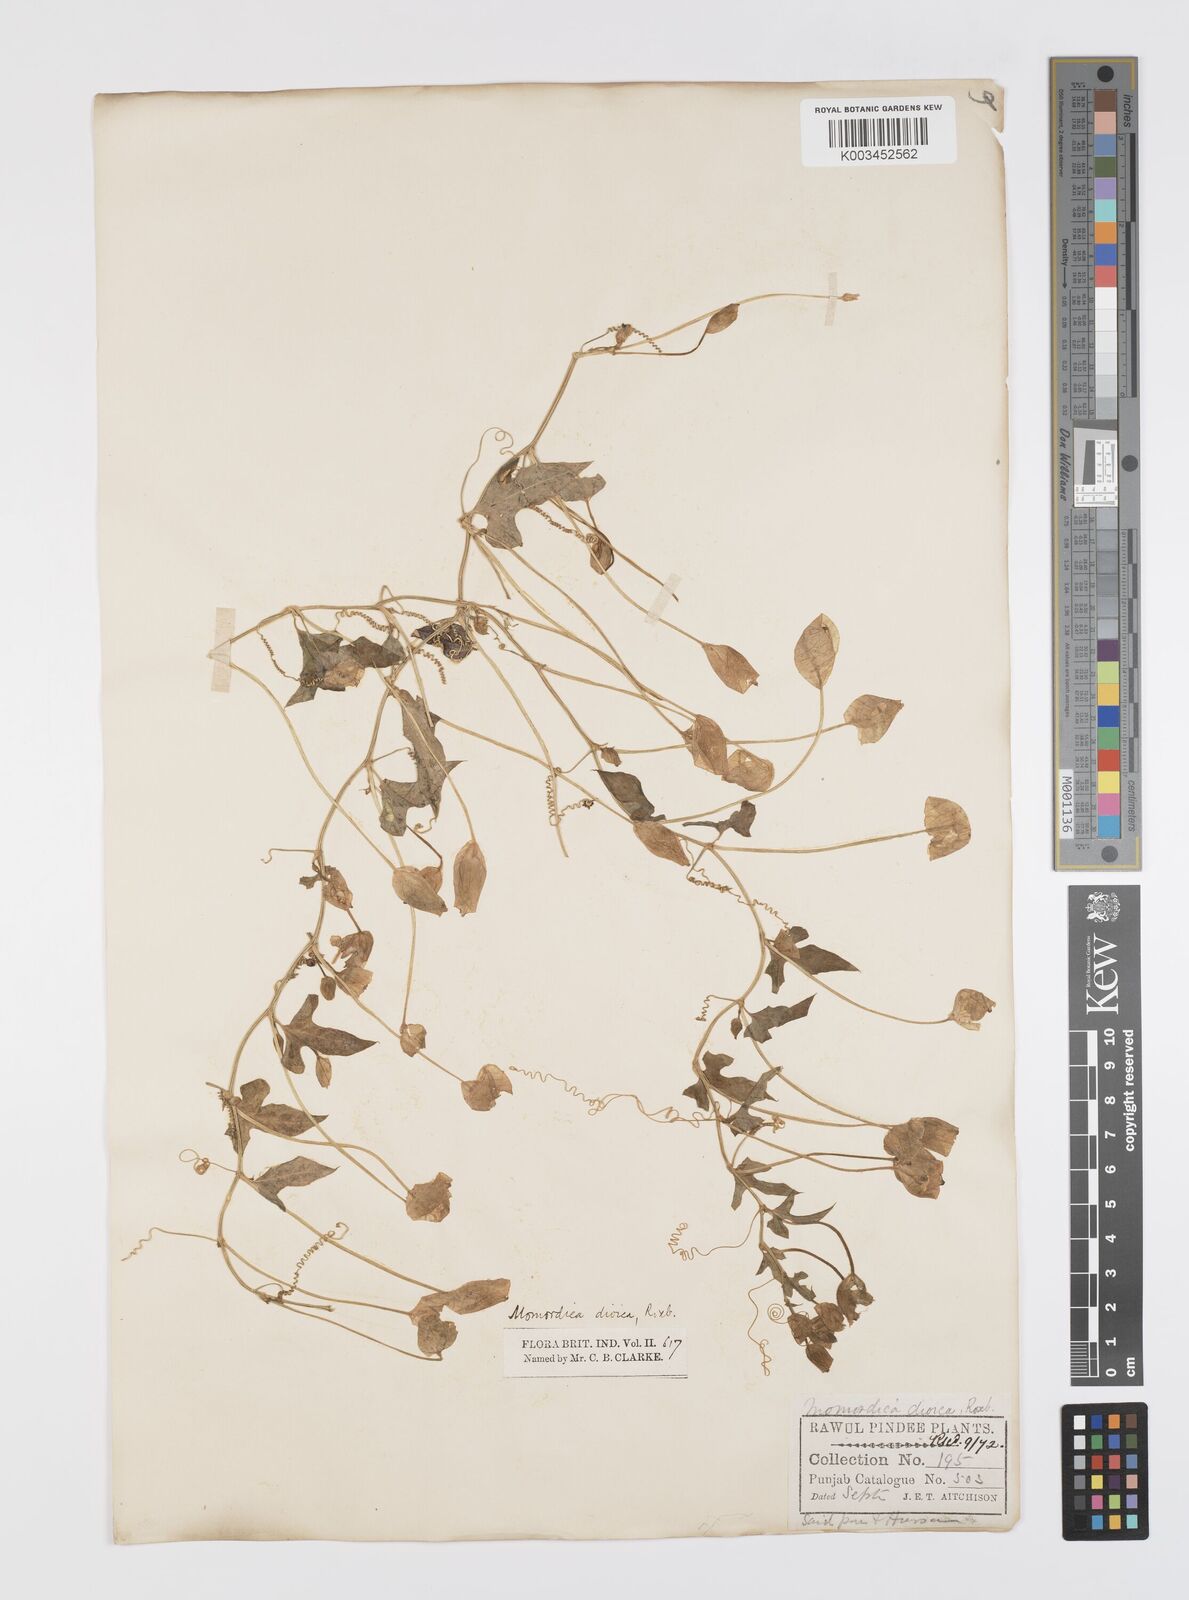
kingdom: Plantae
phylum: Tracheophyta
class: Magnoliopsida
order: Cucurbitales
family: Cucurbitaceae
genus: Momordica
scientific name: Momordica dioica
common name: Spine gourd
